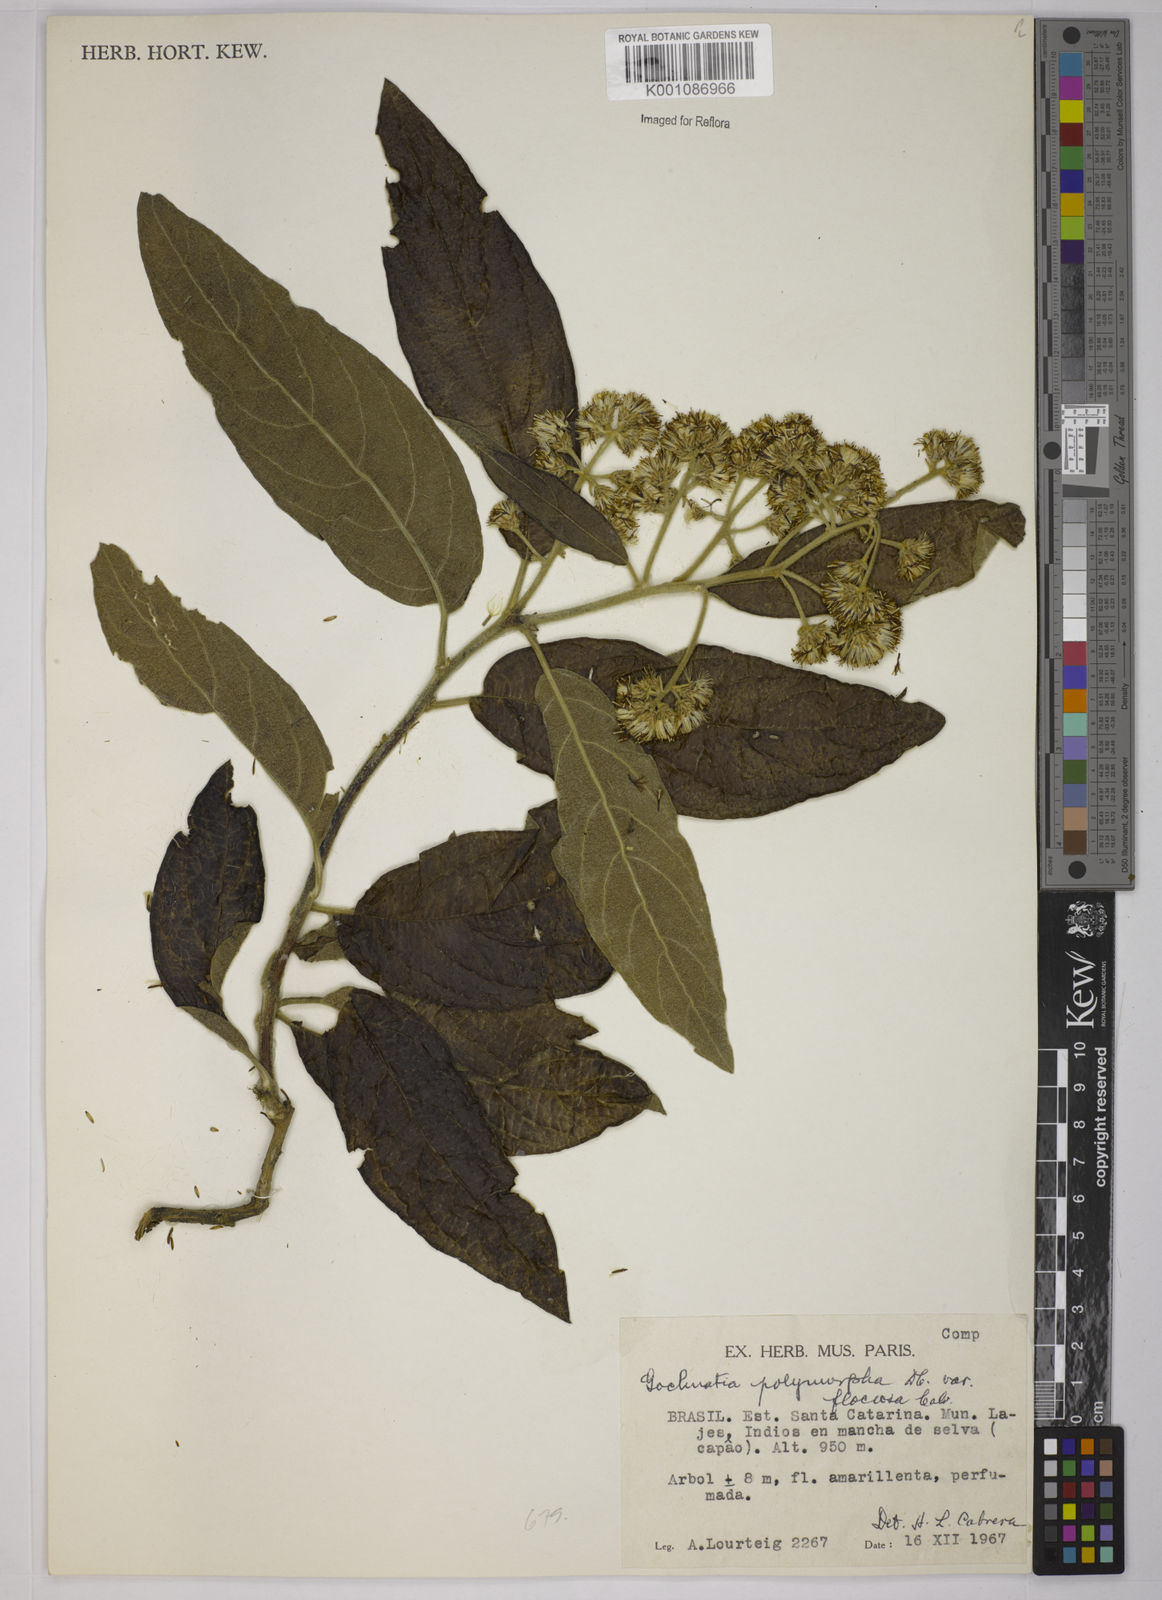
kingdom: Plantae
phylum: Tracheophyta
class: Magnoliopsida
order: Asterales
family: Asteraceae
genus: Moquiniastrum
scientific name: Moquiniastrum polymorphum
